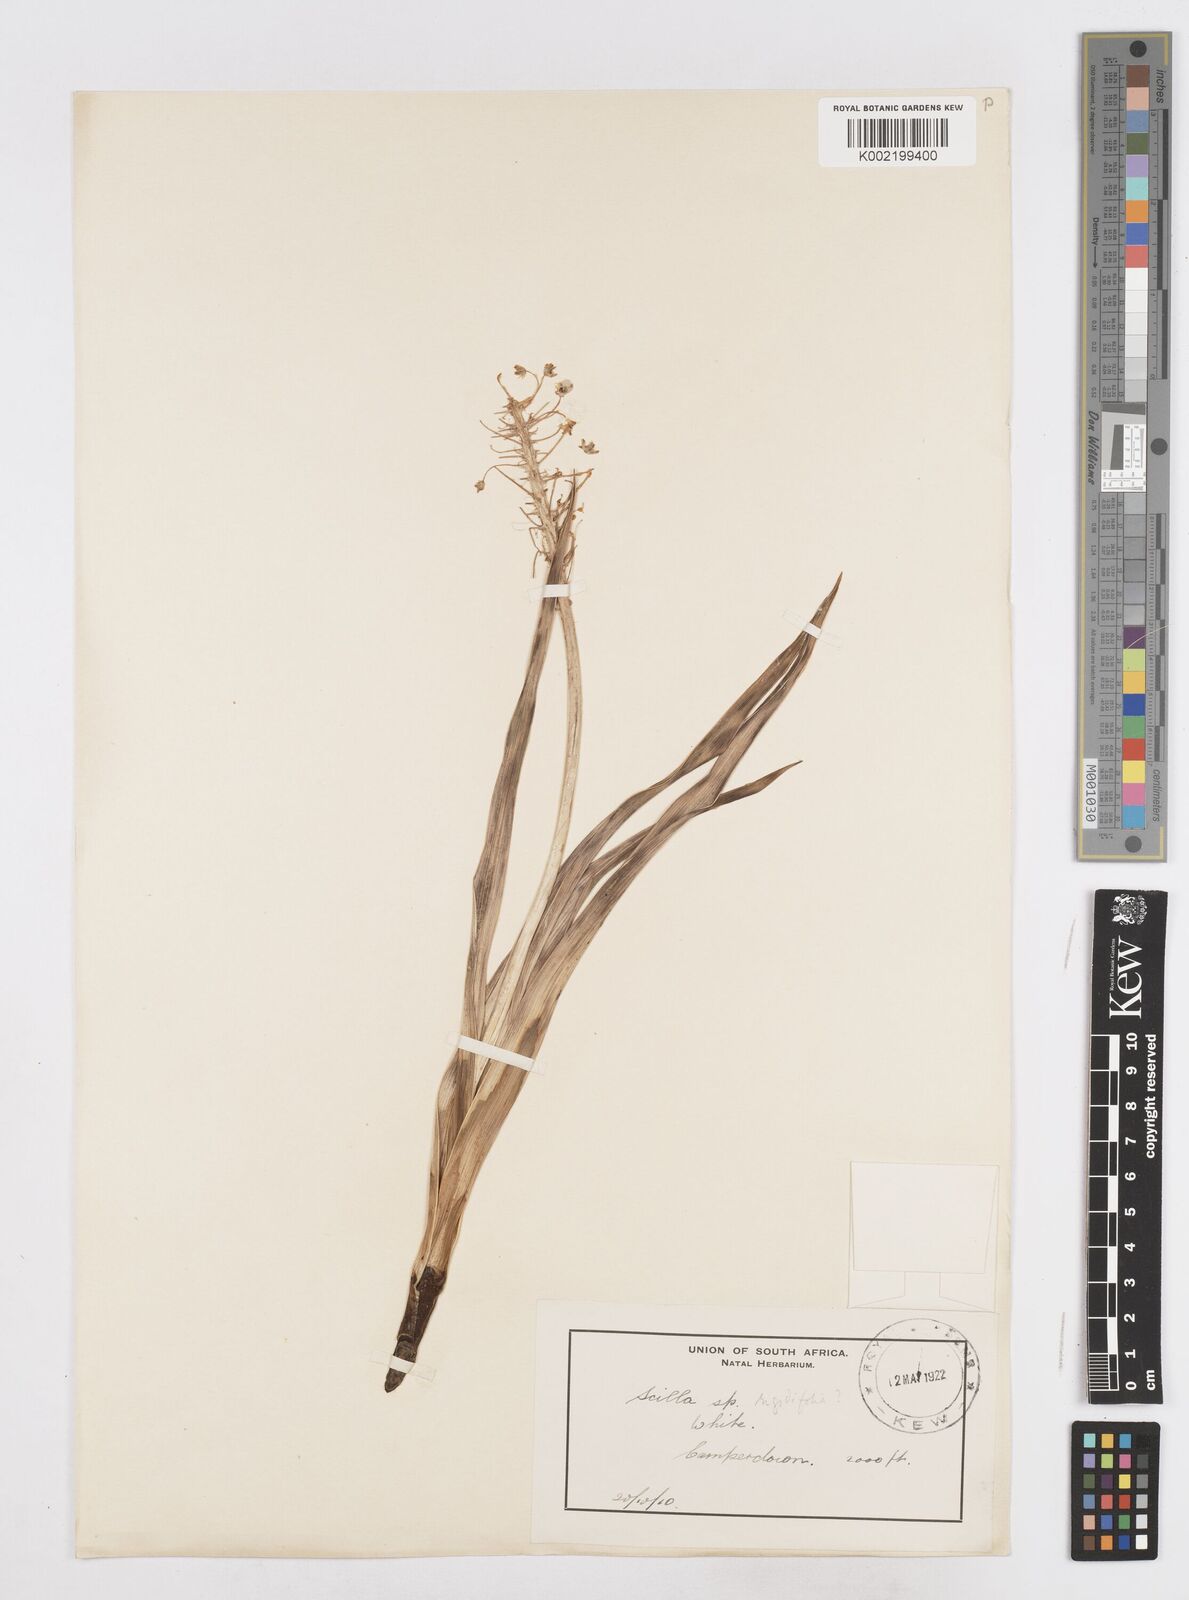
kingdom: Plantae
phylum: Tracheophyta
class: Liliopsida
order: Asparagales
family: Asparagaceae
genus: Schizocarphus
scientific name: Schizocarphus nervosus
